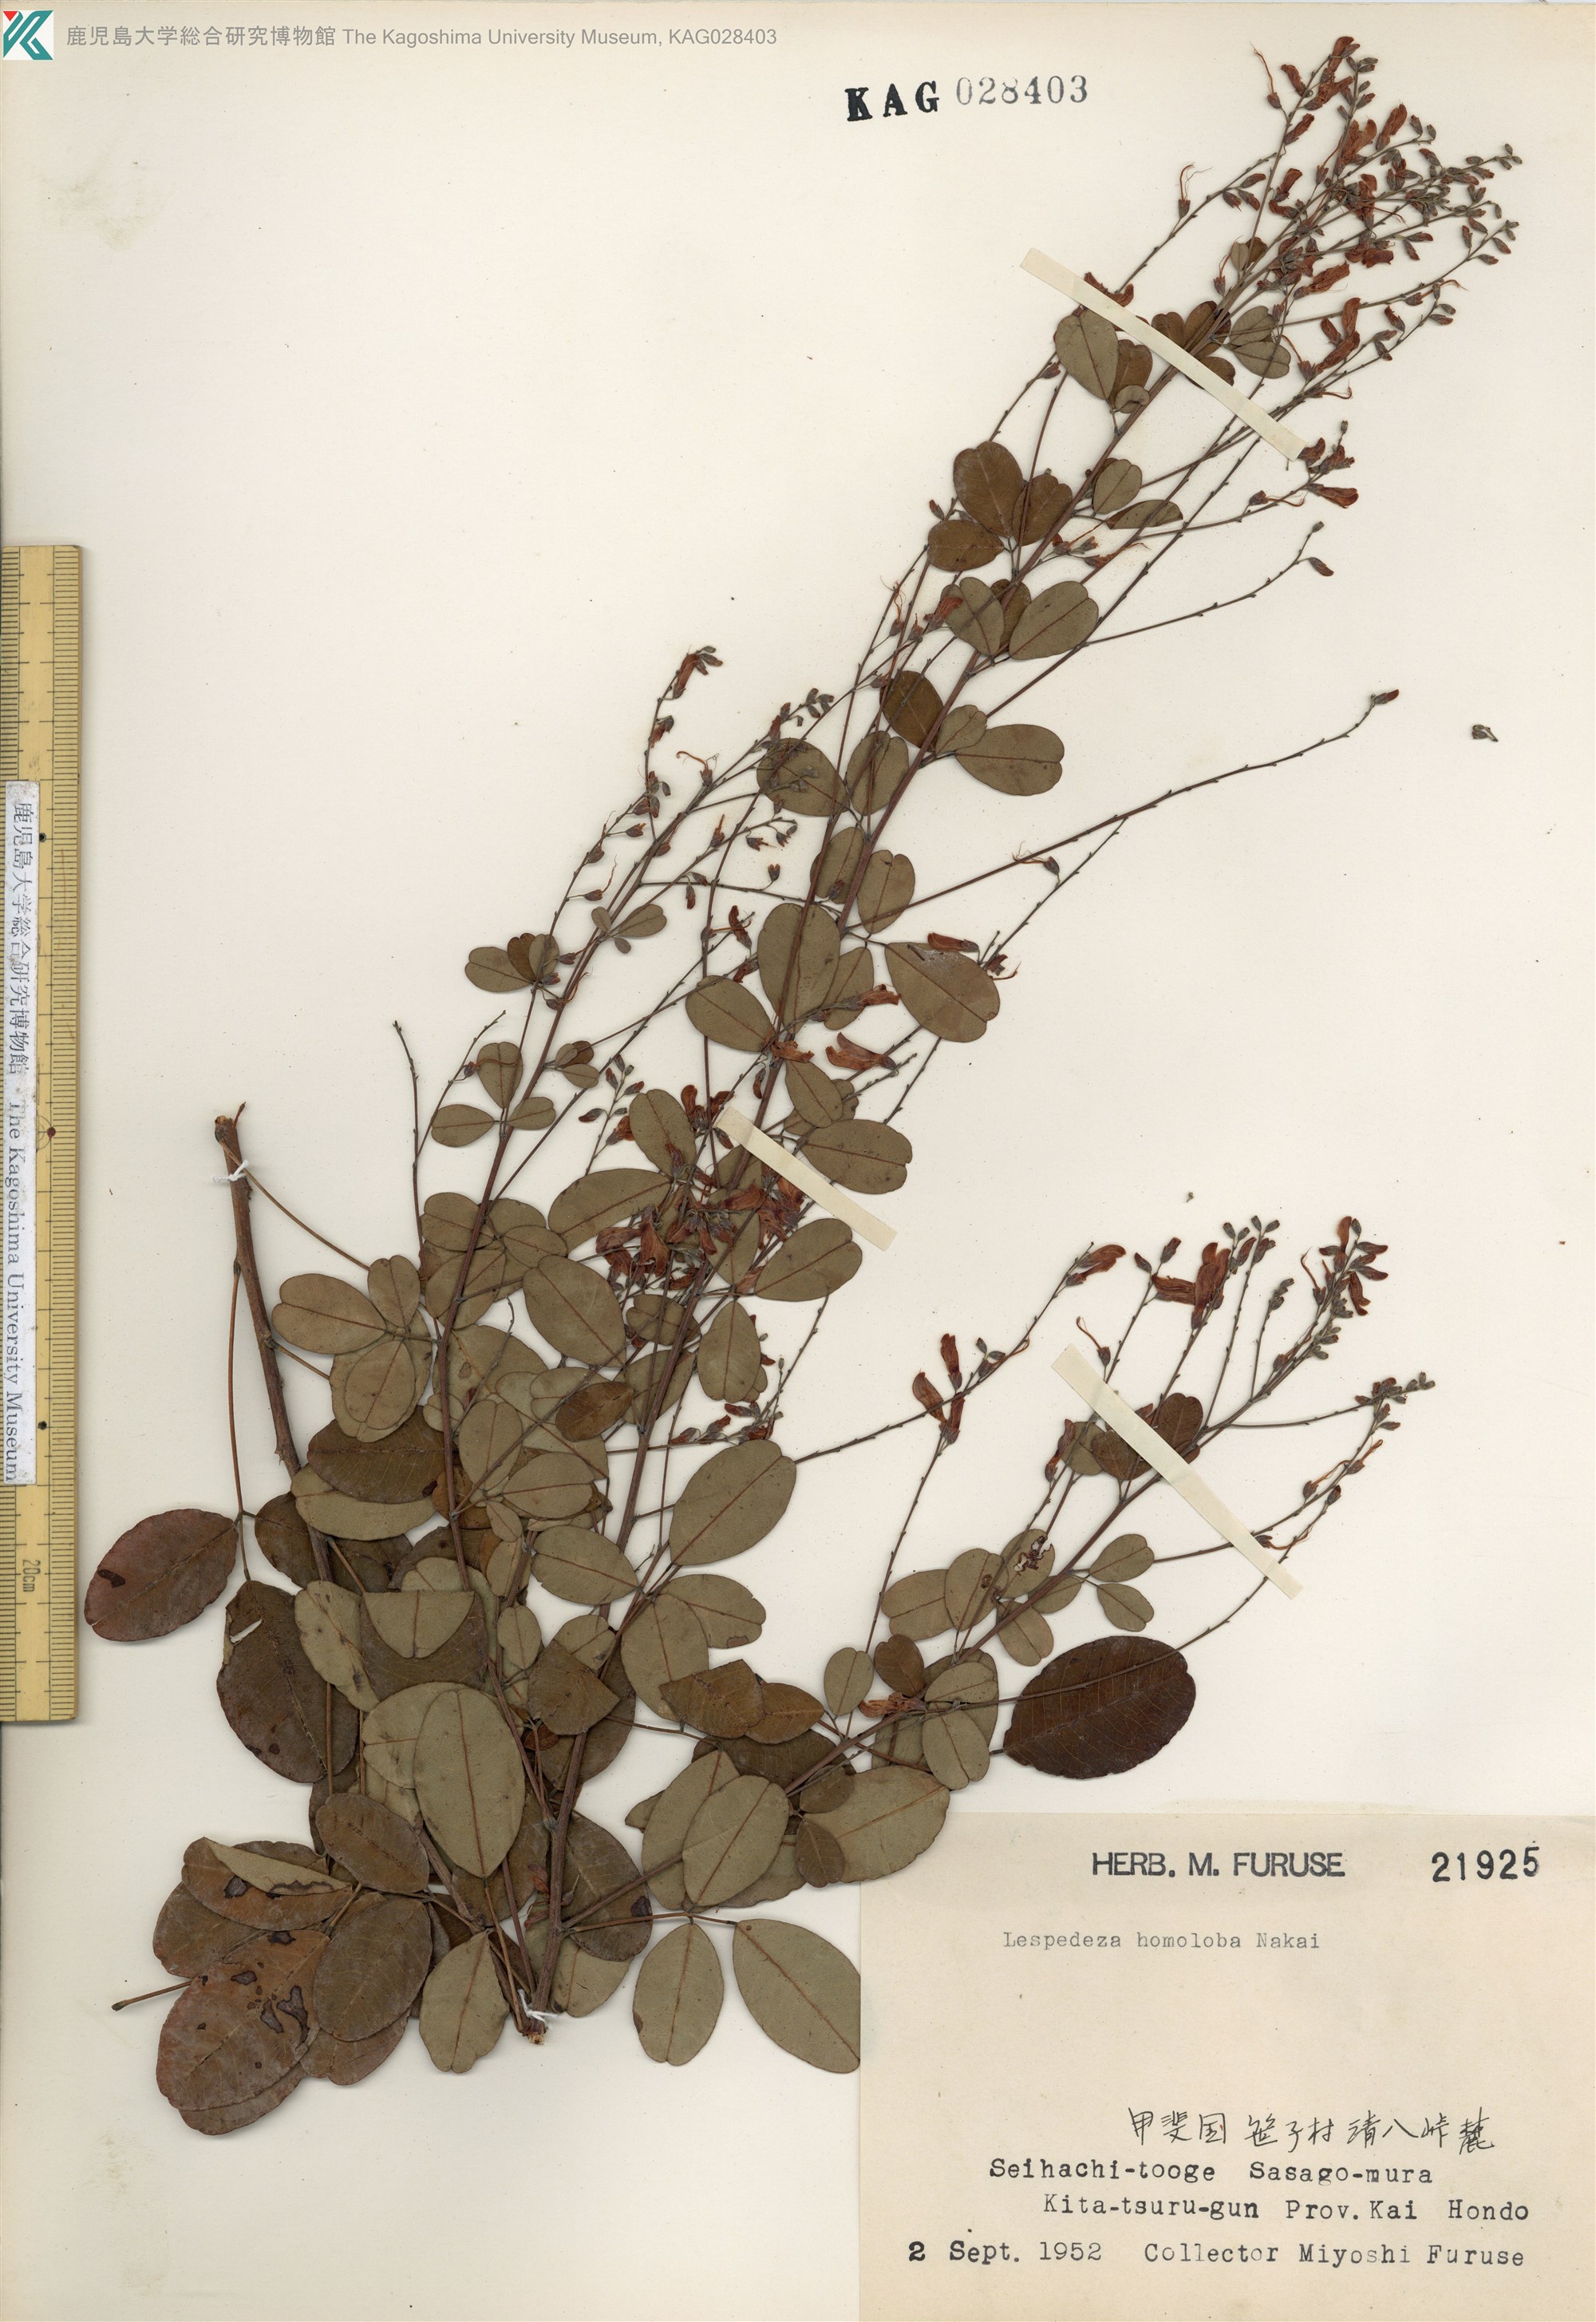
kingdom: Plantae
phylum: Tracheophyta
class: Magnoliopsida
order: Fabales
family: Fabaceae
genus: Lespedeza
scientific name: Lespedeza homoloba
